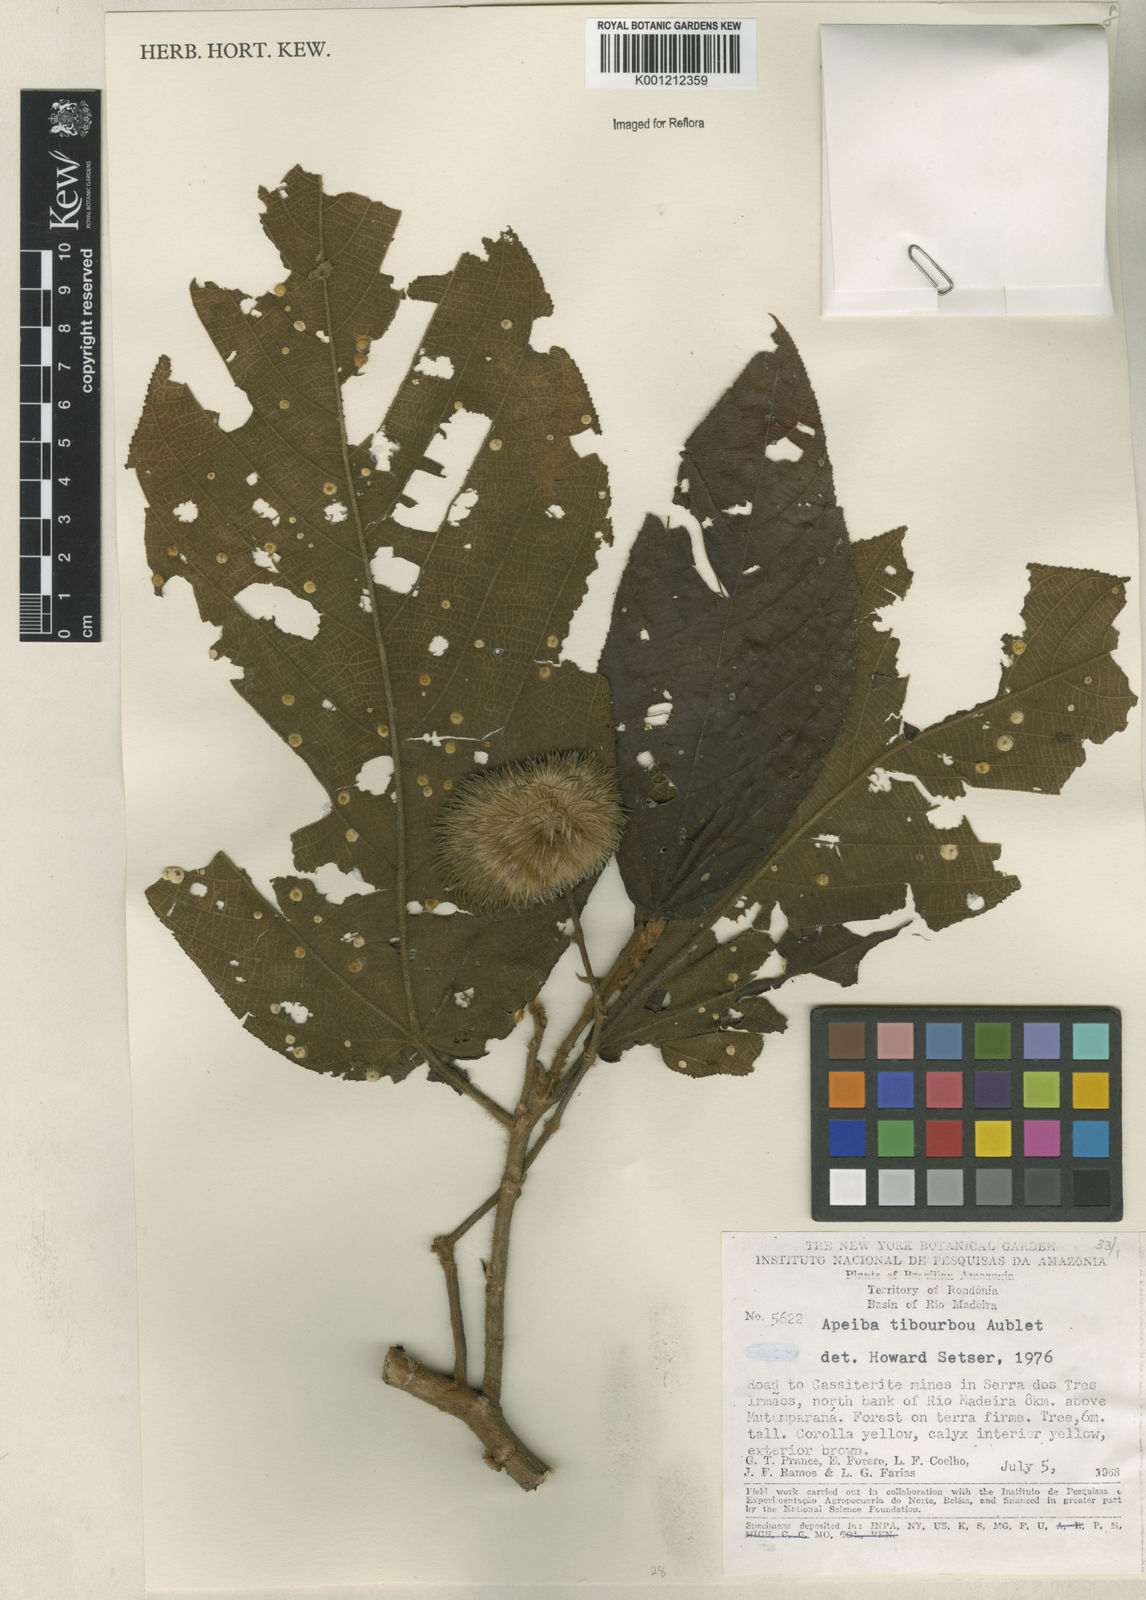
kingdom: Plantae
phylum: Tracheophyta
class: Magnoliopsida
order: Malvales
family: Malvaceae
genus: Apeiba
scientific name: Apeiba tibourbou
